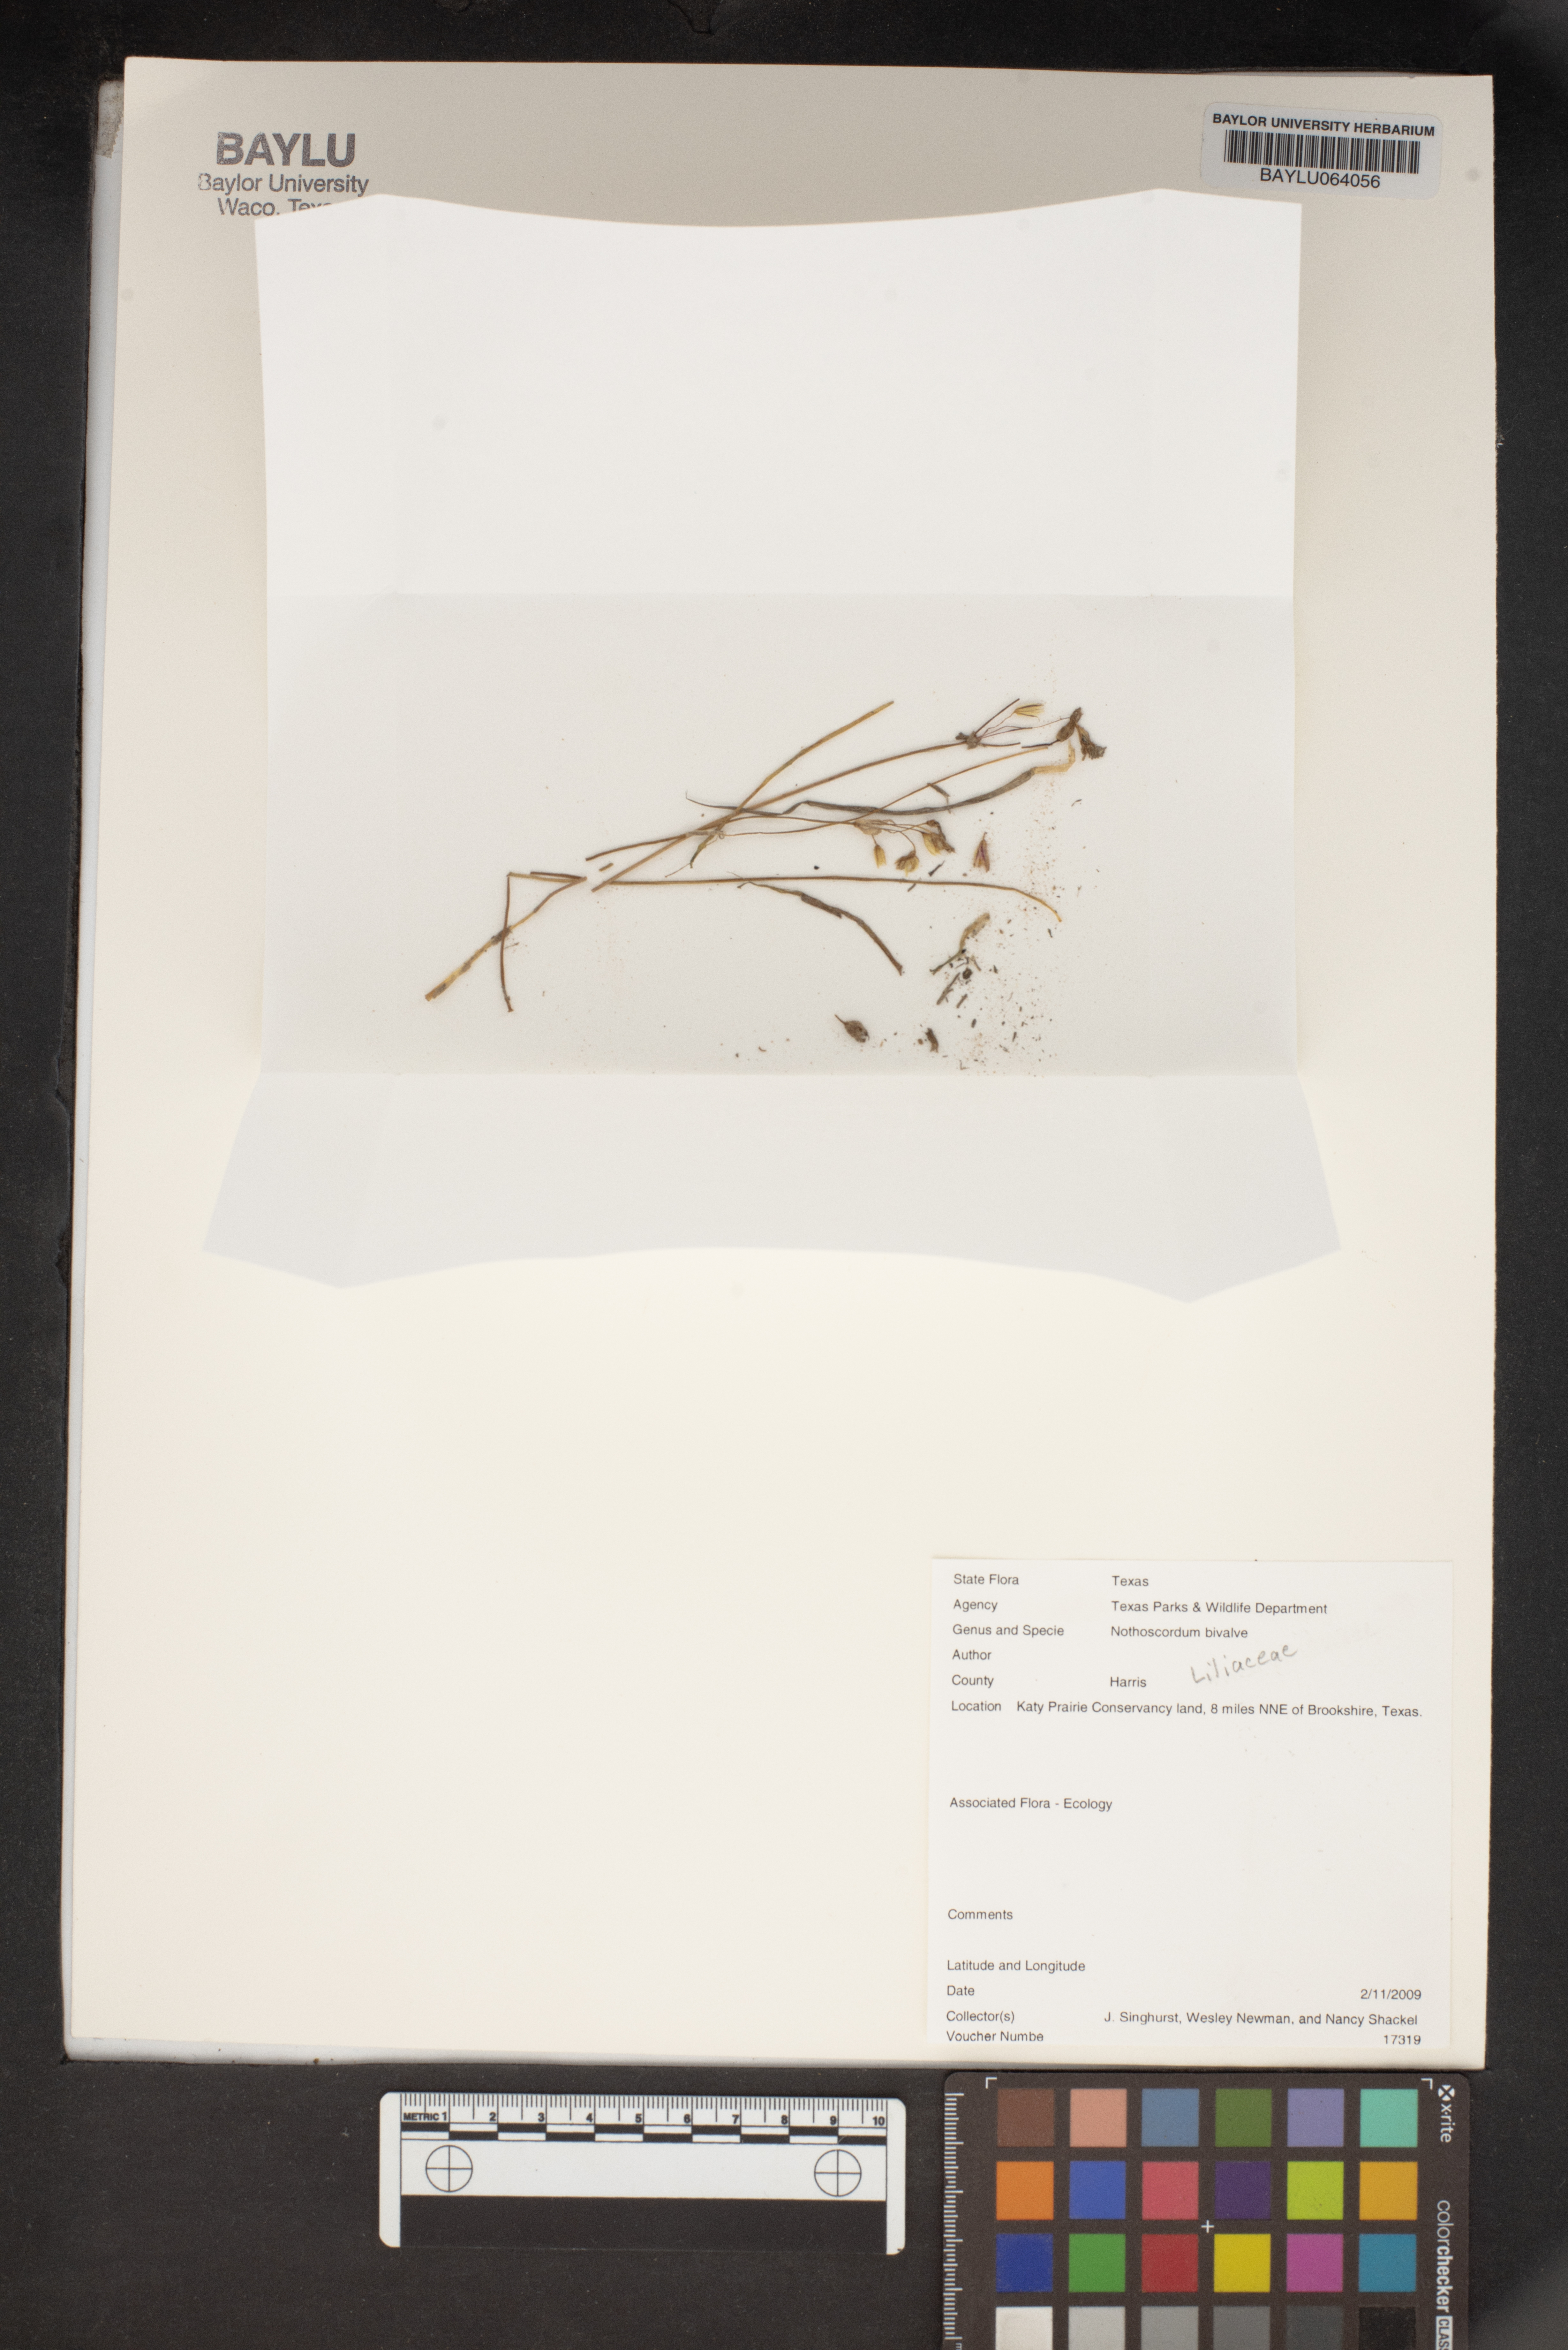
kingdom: Plantae
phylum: Tracheophyta
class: Liliopsida
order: Asparagales
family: Amaryllidaceae
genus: Nothoscordum
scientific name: Nothoscordum bivalve
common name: Crow-poison
